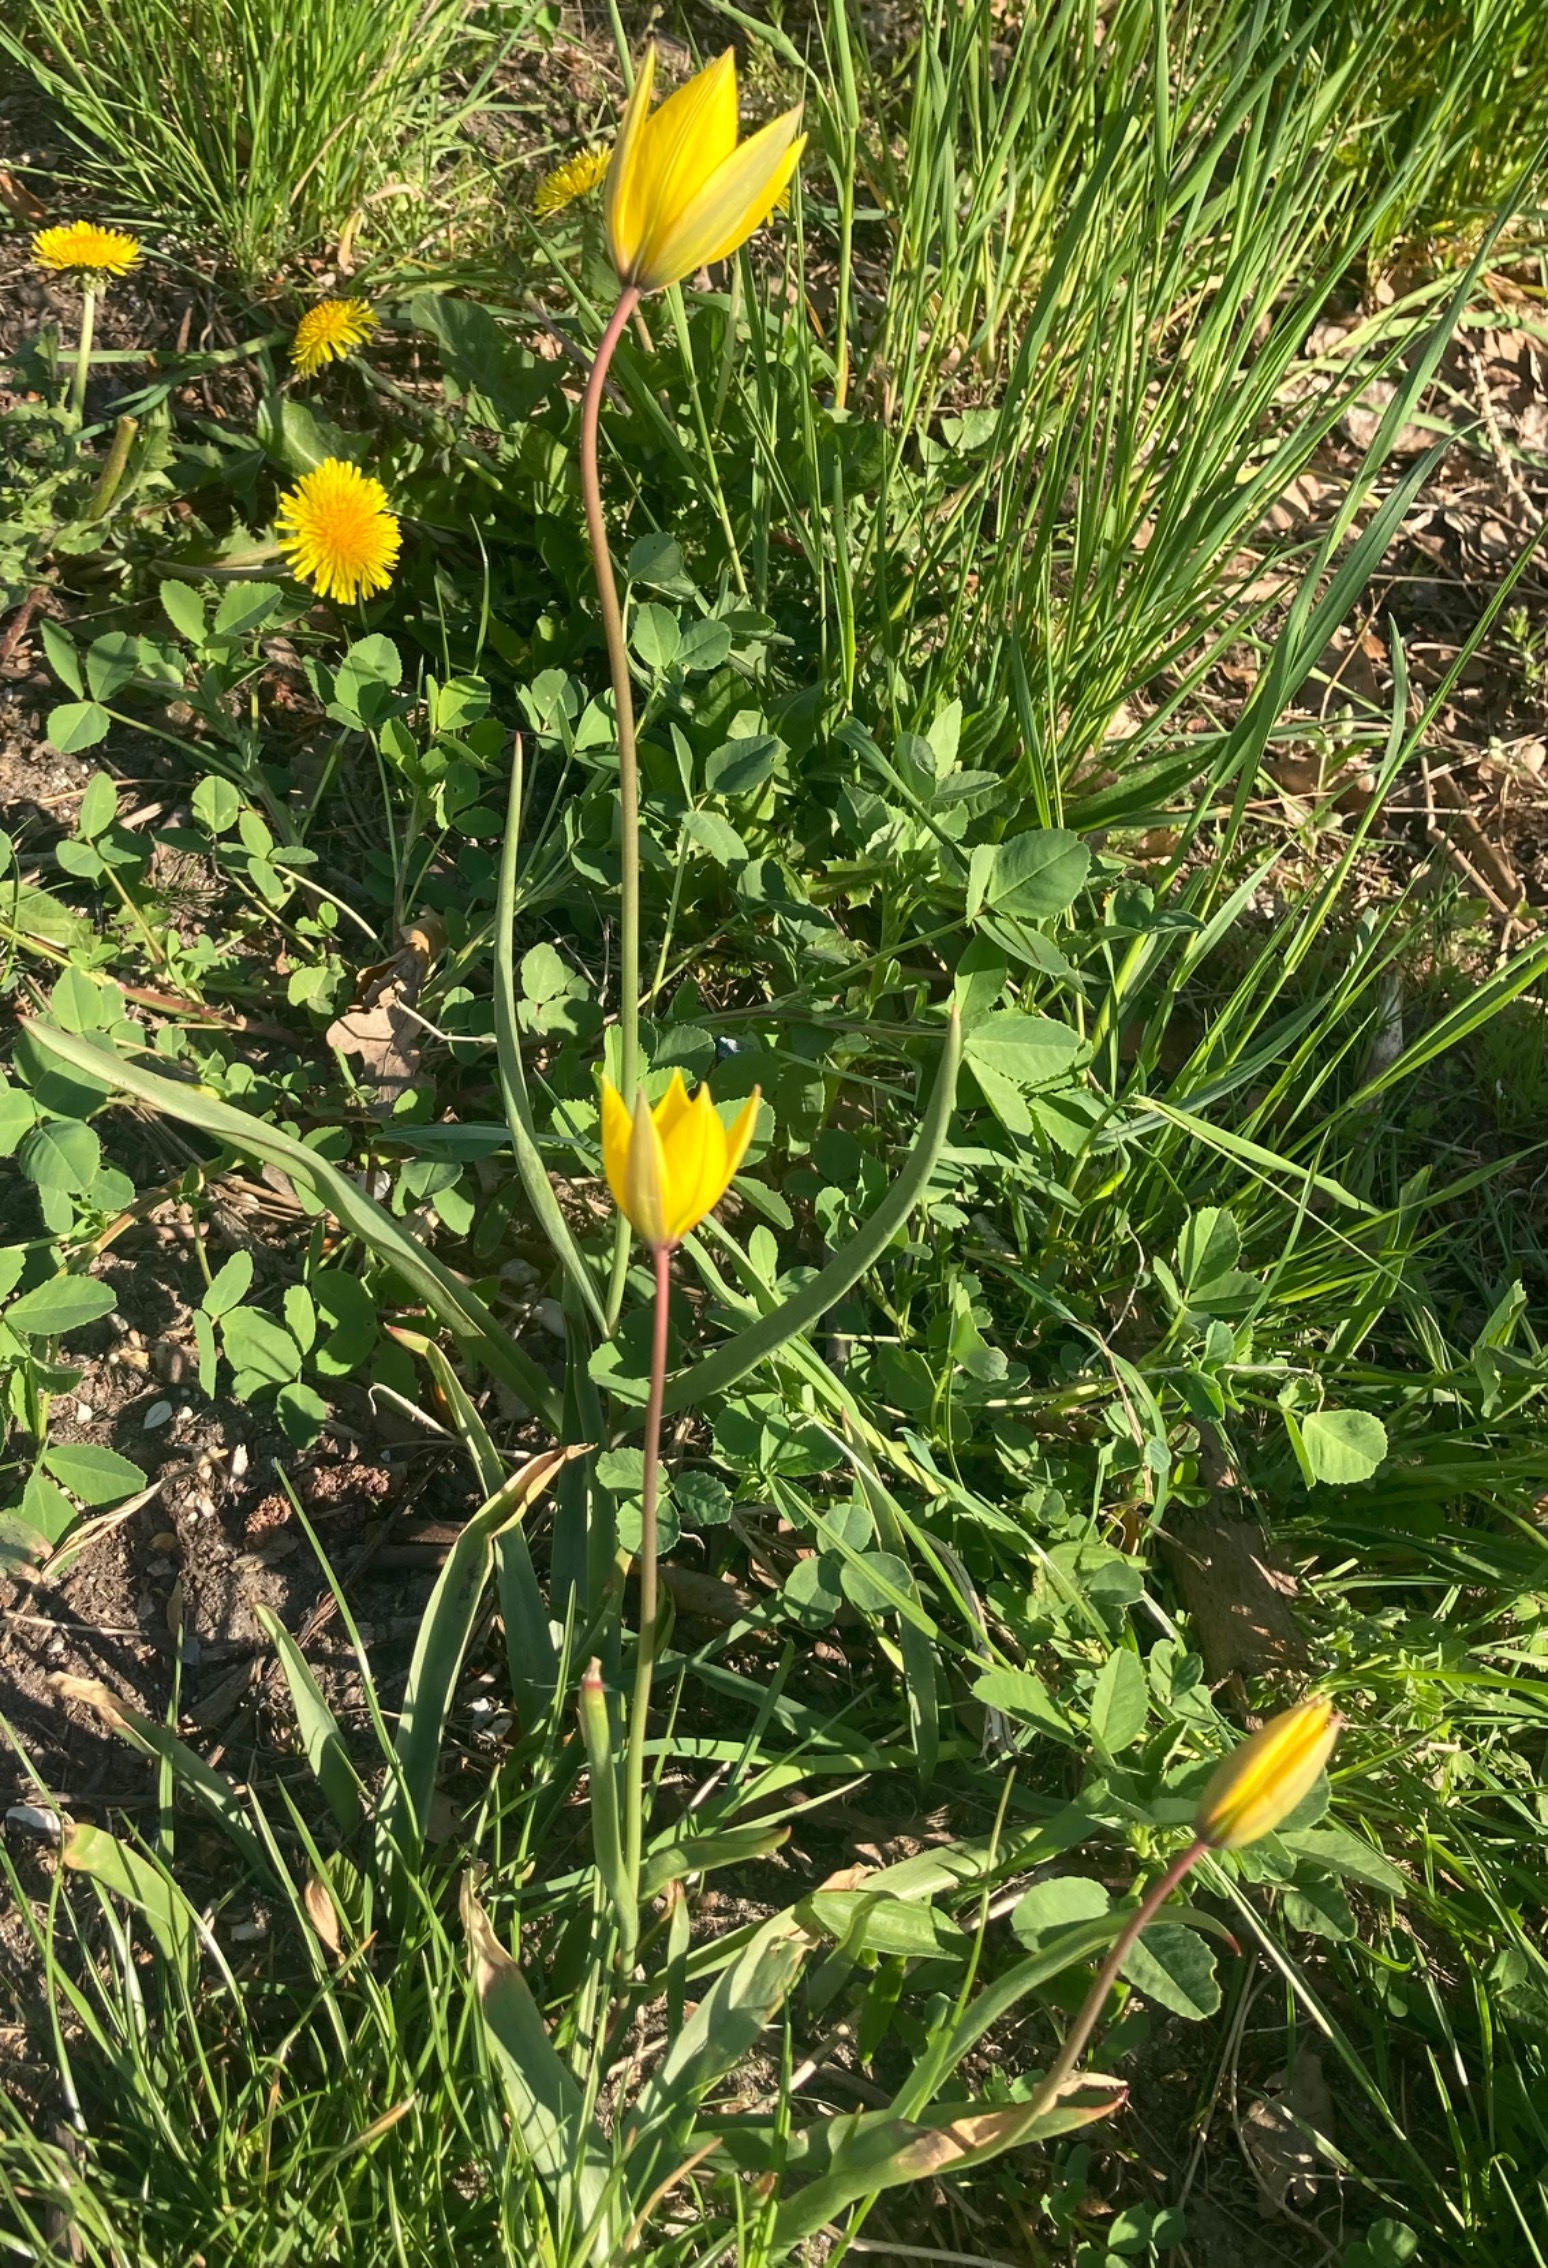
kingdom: Plantae
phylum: Tracheophyta
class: Liliopsida
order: Liliales
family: Liliaceae
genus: Tulipa
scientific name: Tulipa sylvestris
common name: Vild tulipan
